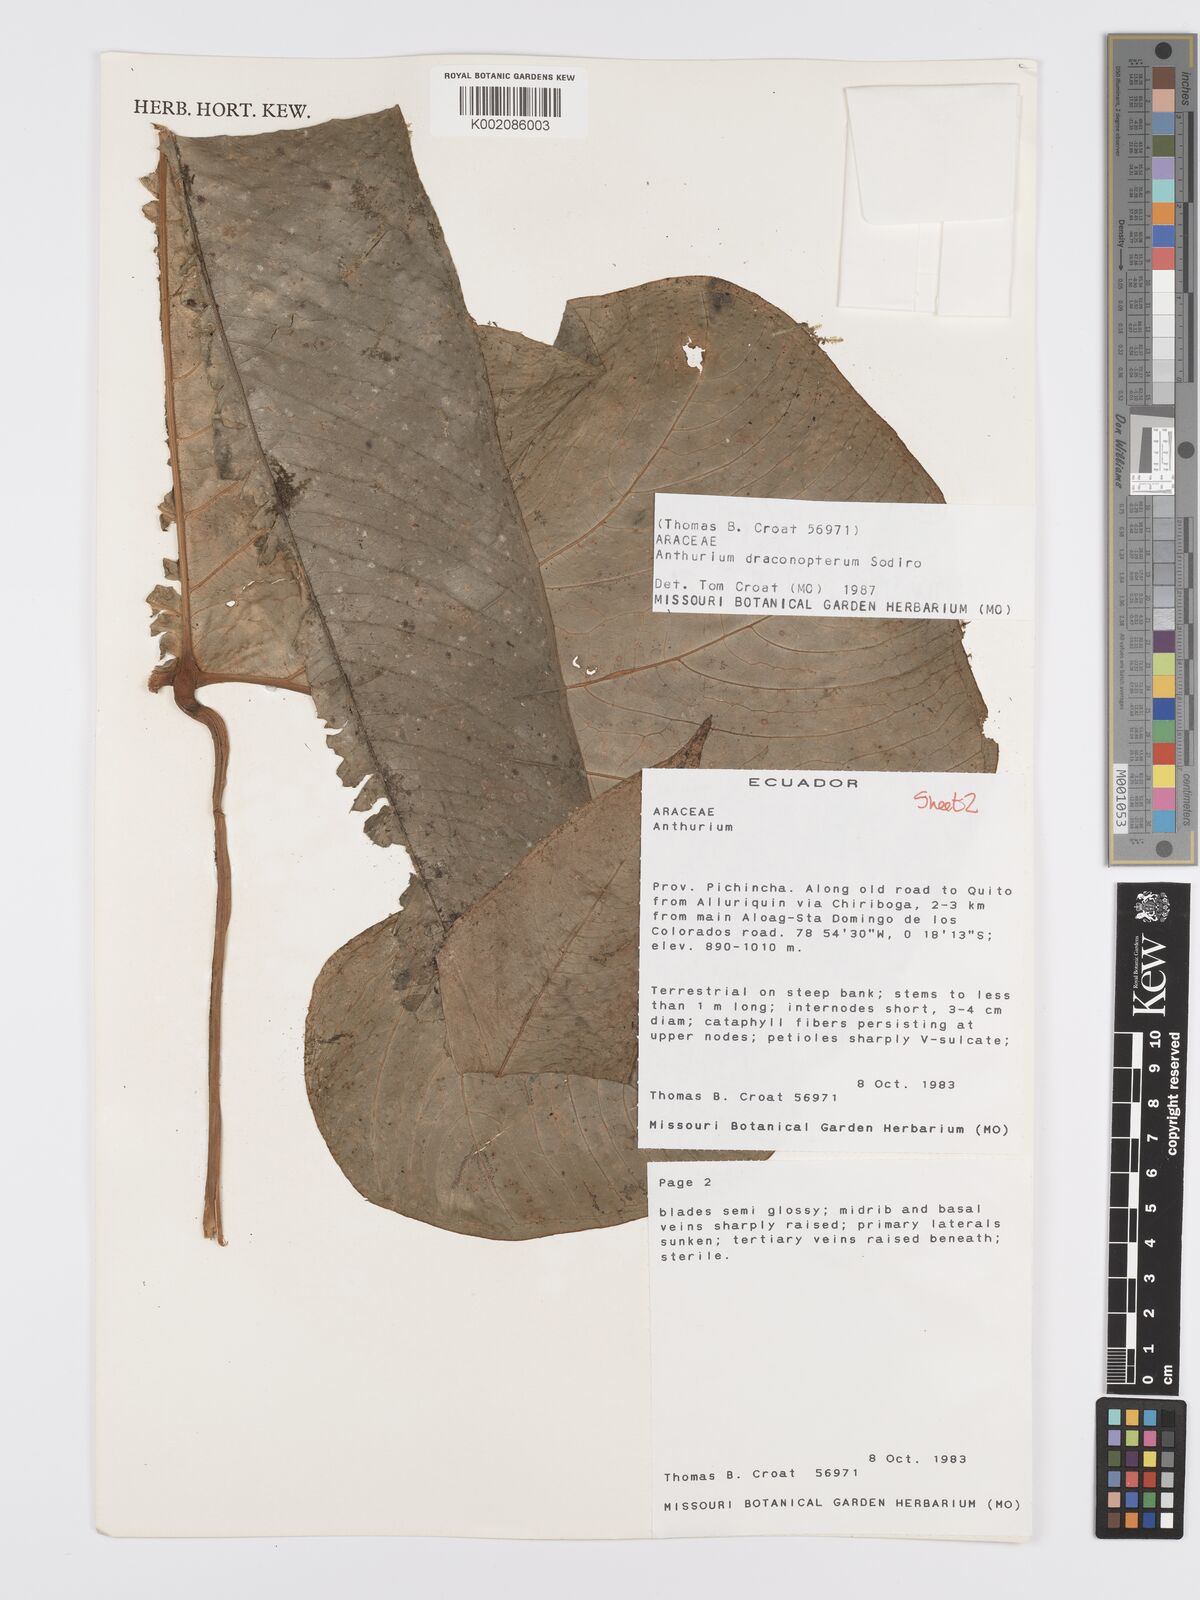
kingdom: Plantae
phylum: Tracheophyta
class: Liliopsida
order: Alismatales
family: Araceae
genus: Anthurium
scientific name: Anthurium draconopterum
